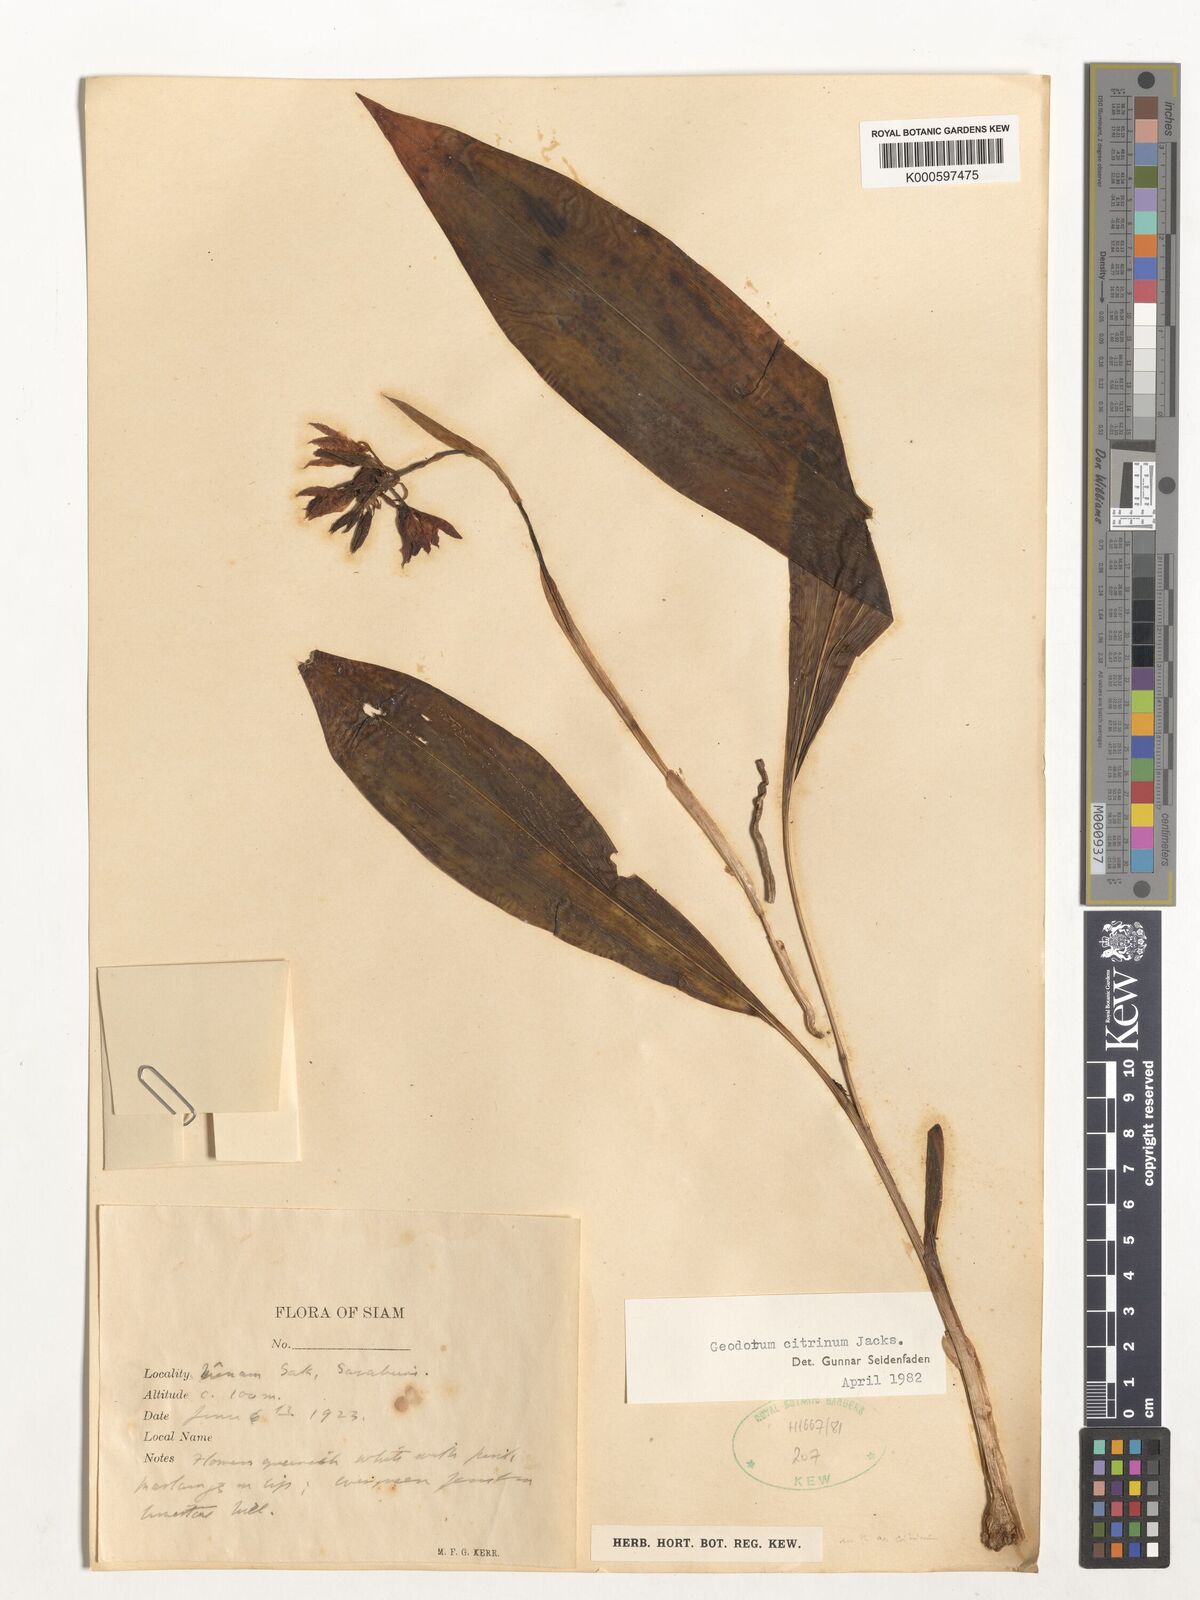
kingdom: Plantae
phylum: Tracheophyta
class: Liliopsida
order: Asparagales
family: Orchidaceae
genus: Geodorum
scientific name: Geodorum
